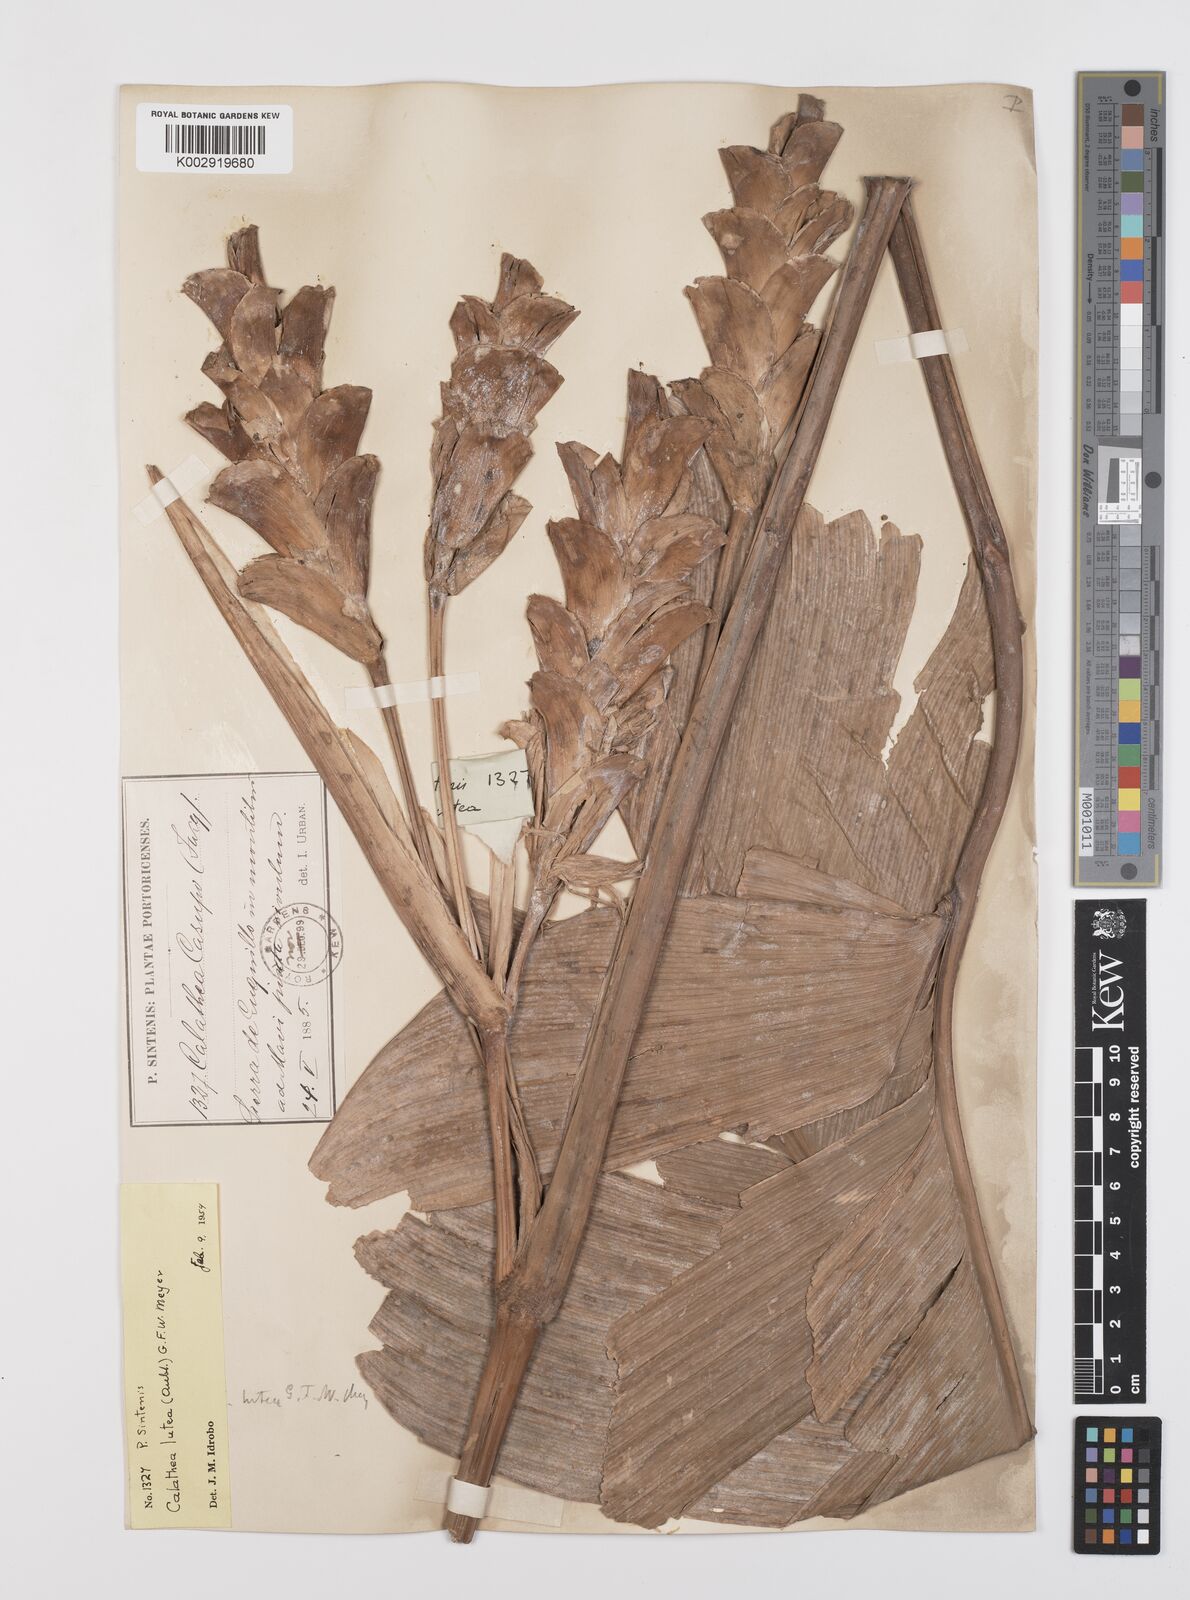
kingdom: Plantae
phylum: Tracheophyta
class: Liliopsida
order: Zingiberales
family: Marantaceae
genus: Calathea
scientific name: Calathea lutea
